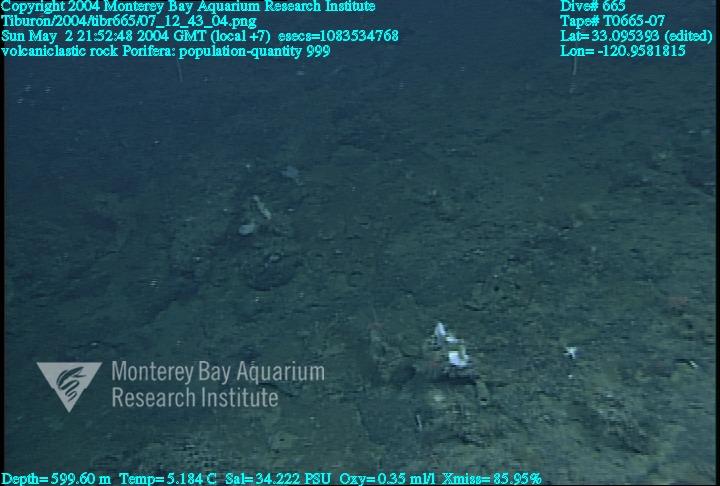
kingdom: Animalia
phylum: Porifera
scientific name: Porifera
